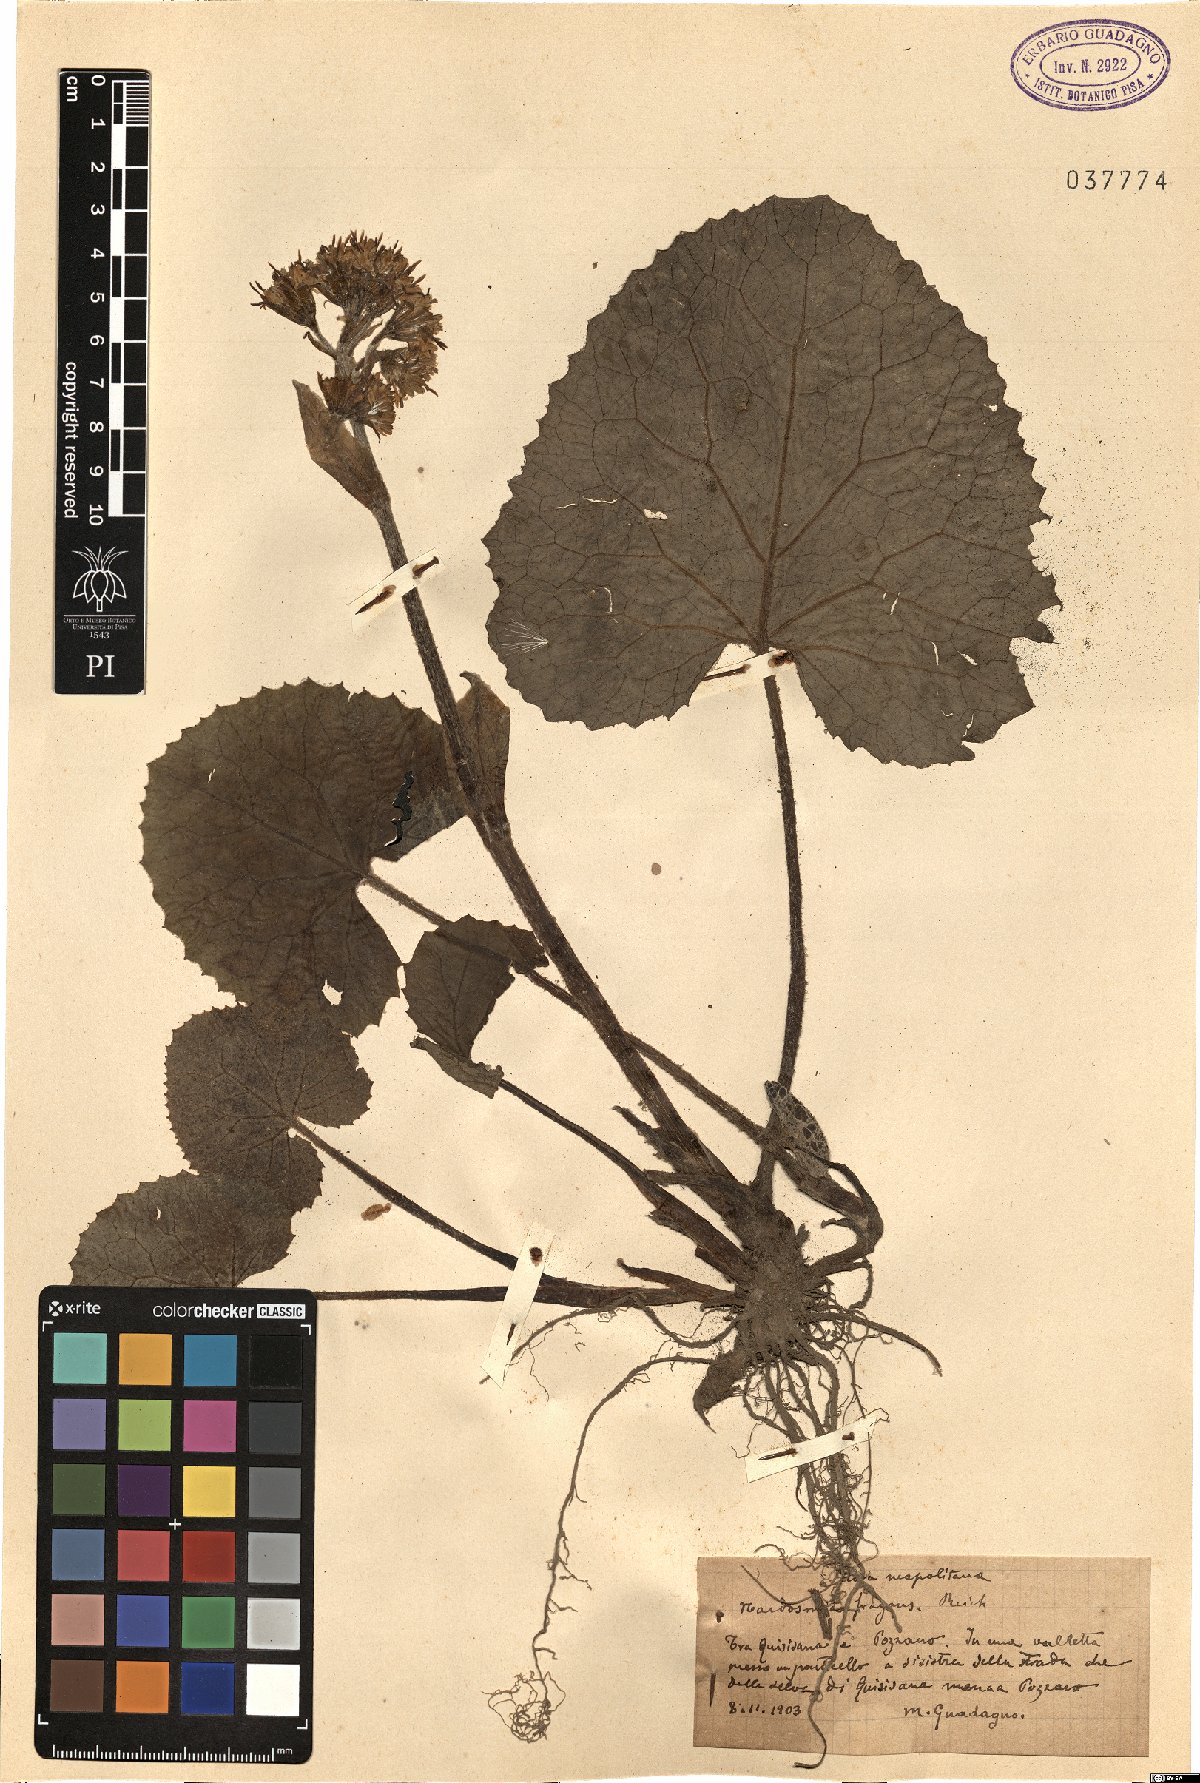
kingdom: Plantae
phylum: Tracheophyta
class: Magnoliopsida
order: Asterales
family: Asteraceae
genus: Petasites
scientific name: Petasites pyrenaicus
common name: Winter heliotrope
